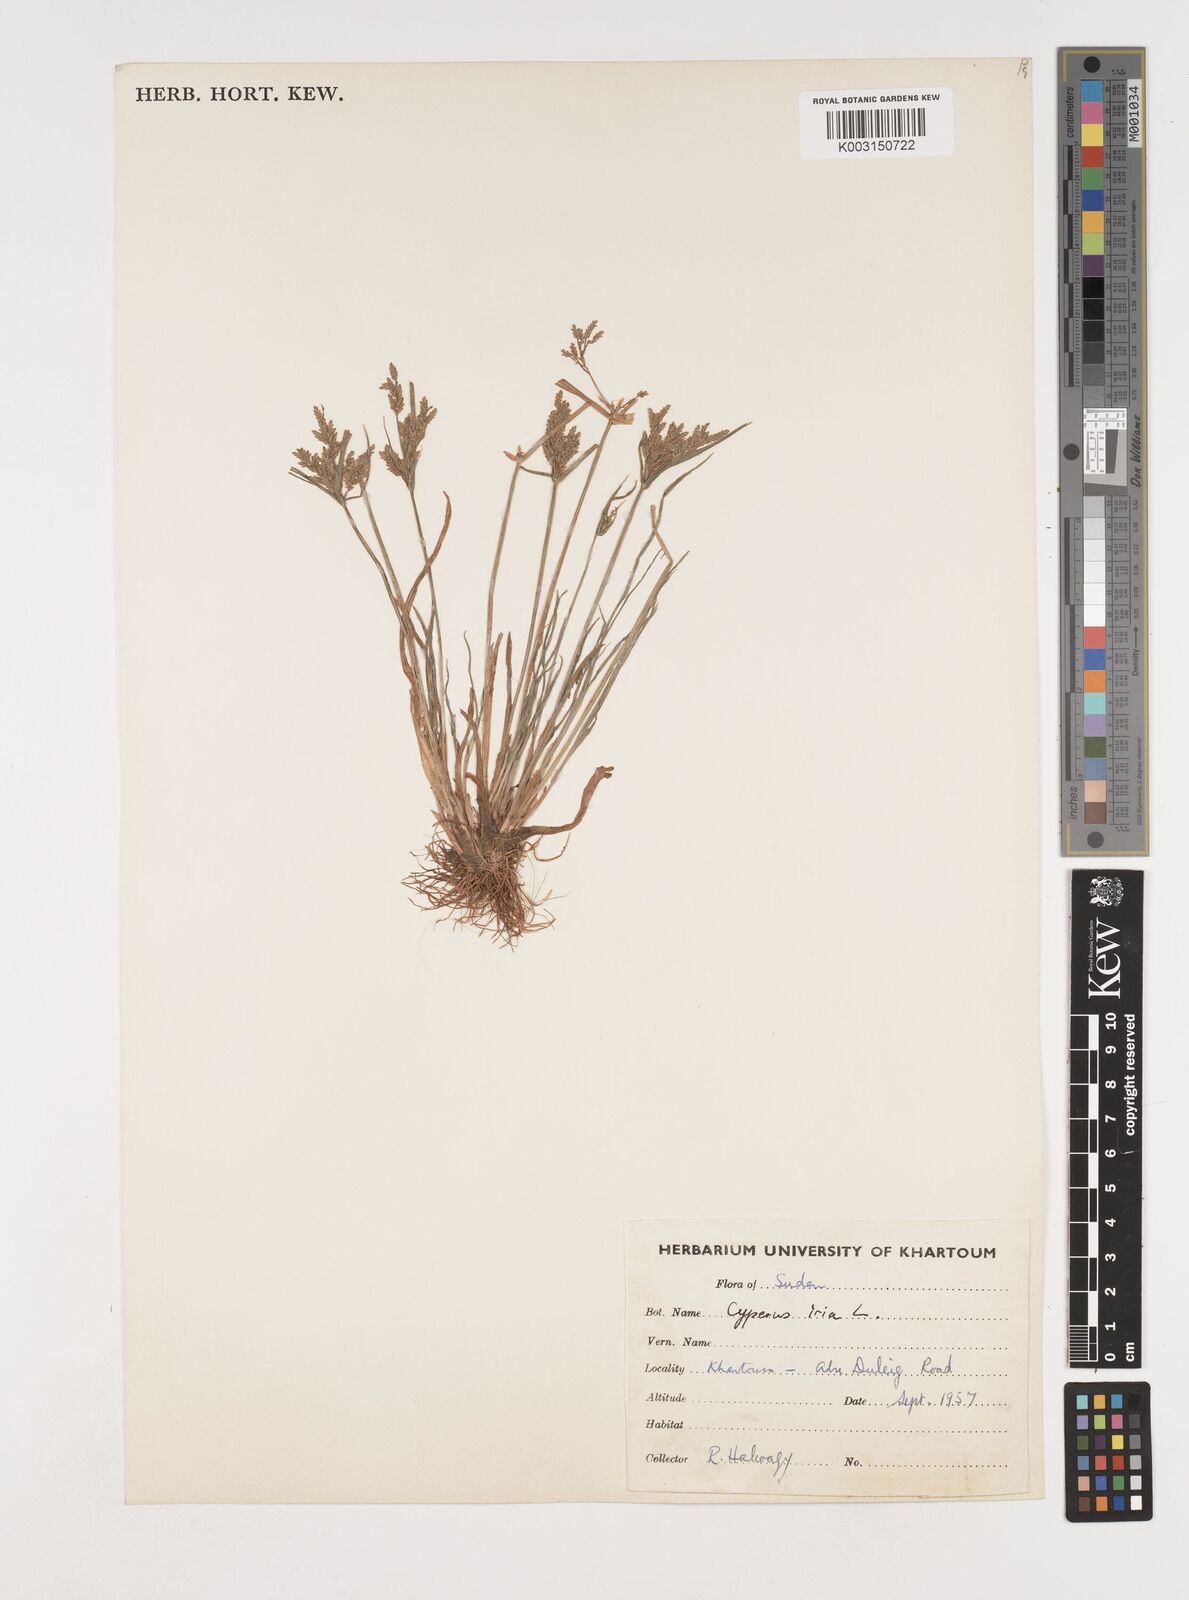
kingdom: Plantae
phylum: Tracheophyta
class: Liliopsida
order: Poales
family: Cyperaceae
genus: Cyperus
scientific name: Cyperus iria
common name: Ricefield flatsedge
